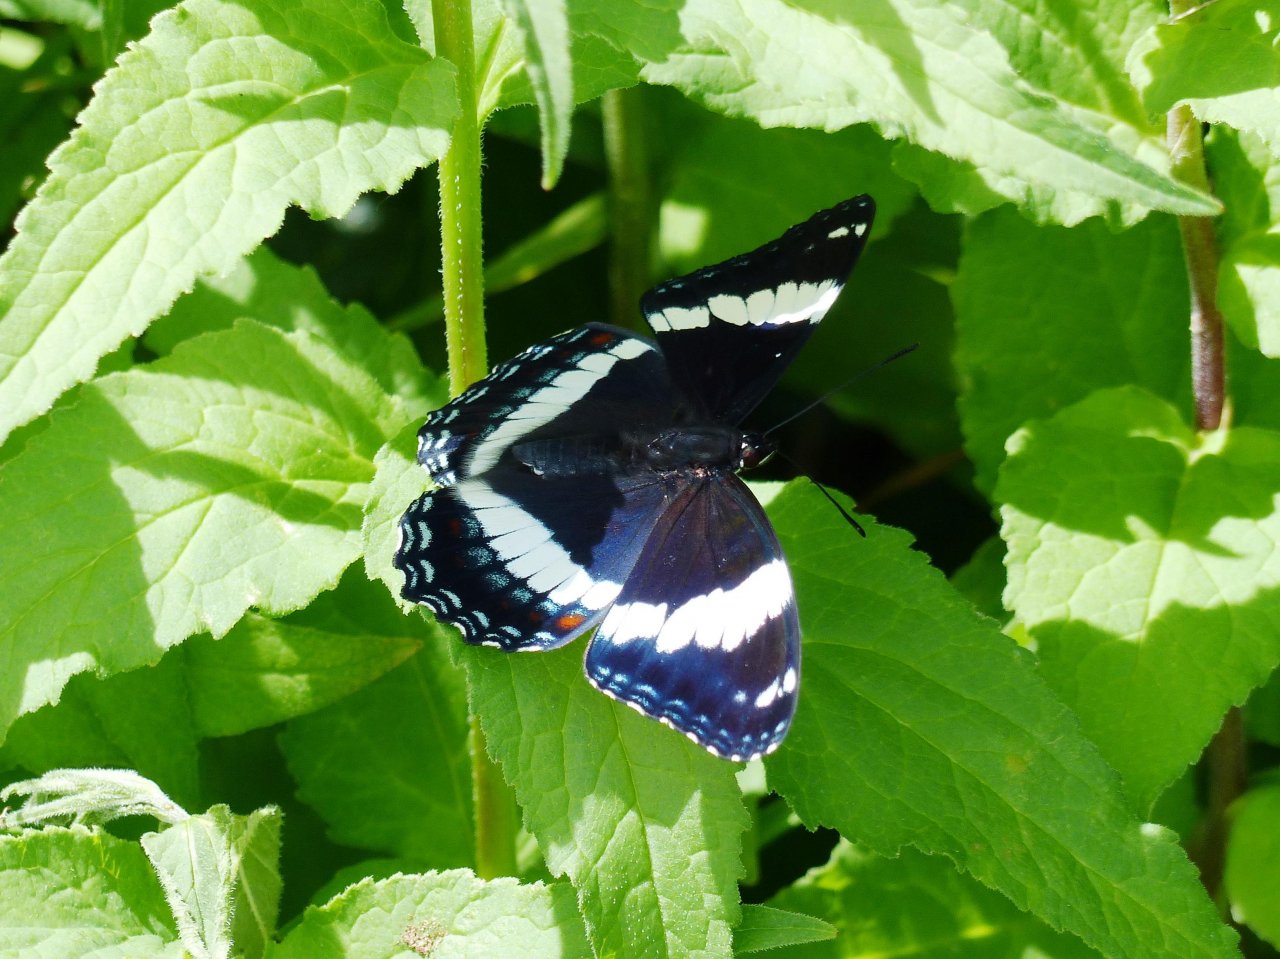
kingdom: Animalia
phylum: Arthropoda
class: Insecta
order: Lepidoptera
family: Nymphalidae
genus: Limenitis
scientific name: Limenitis arthemis
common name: Red-spotted Admiral
